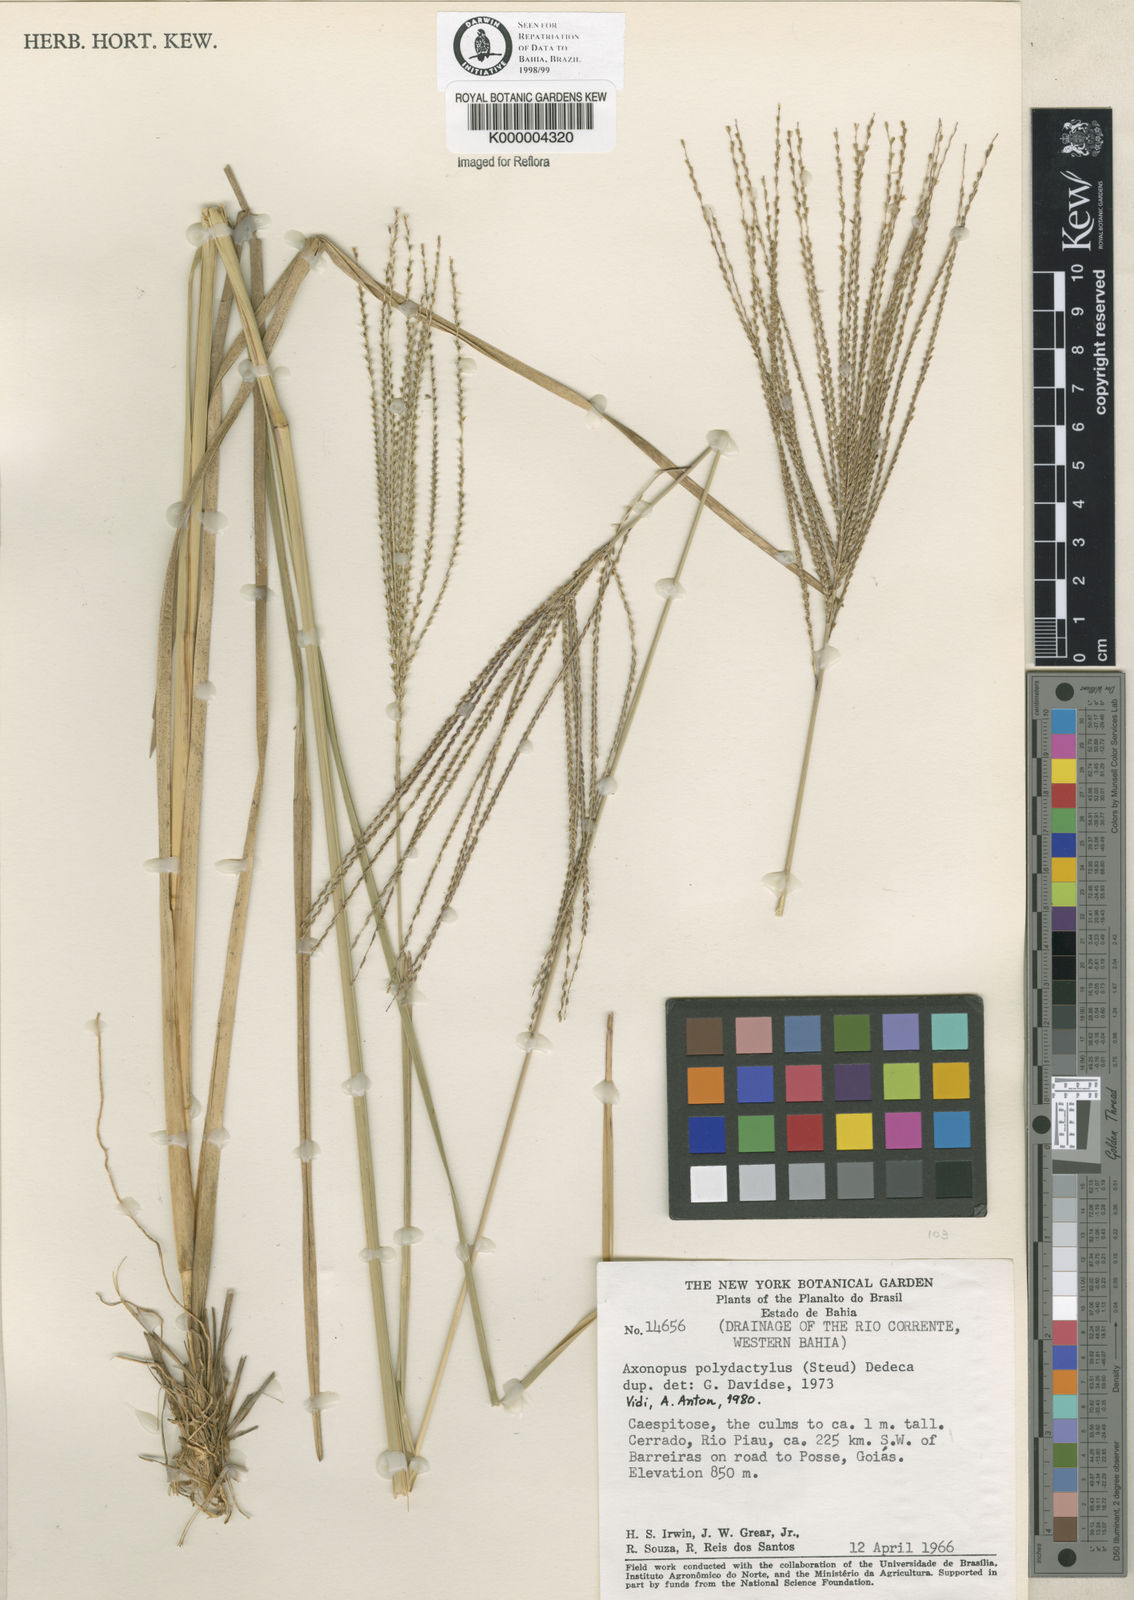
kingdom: Plantae
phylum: Tracheophyta
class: Liliopsida
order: Poales
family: Poaceae
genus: Axonopus
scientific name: Axonopus polydactylus
